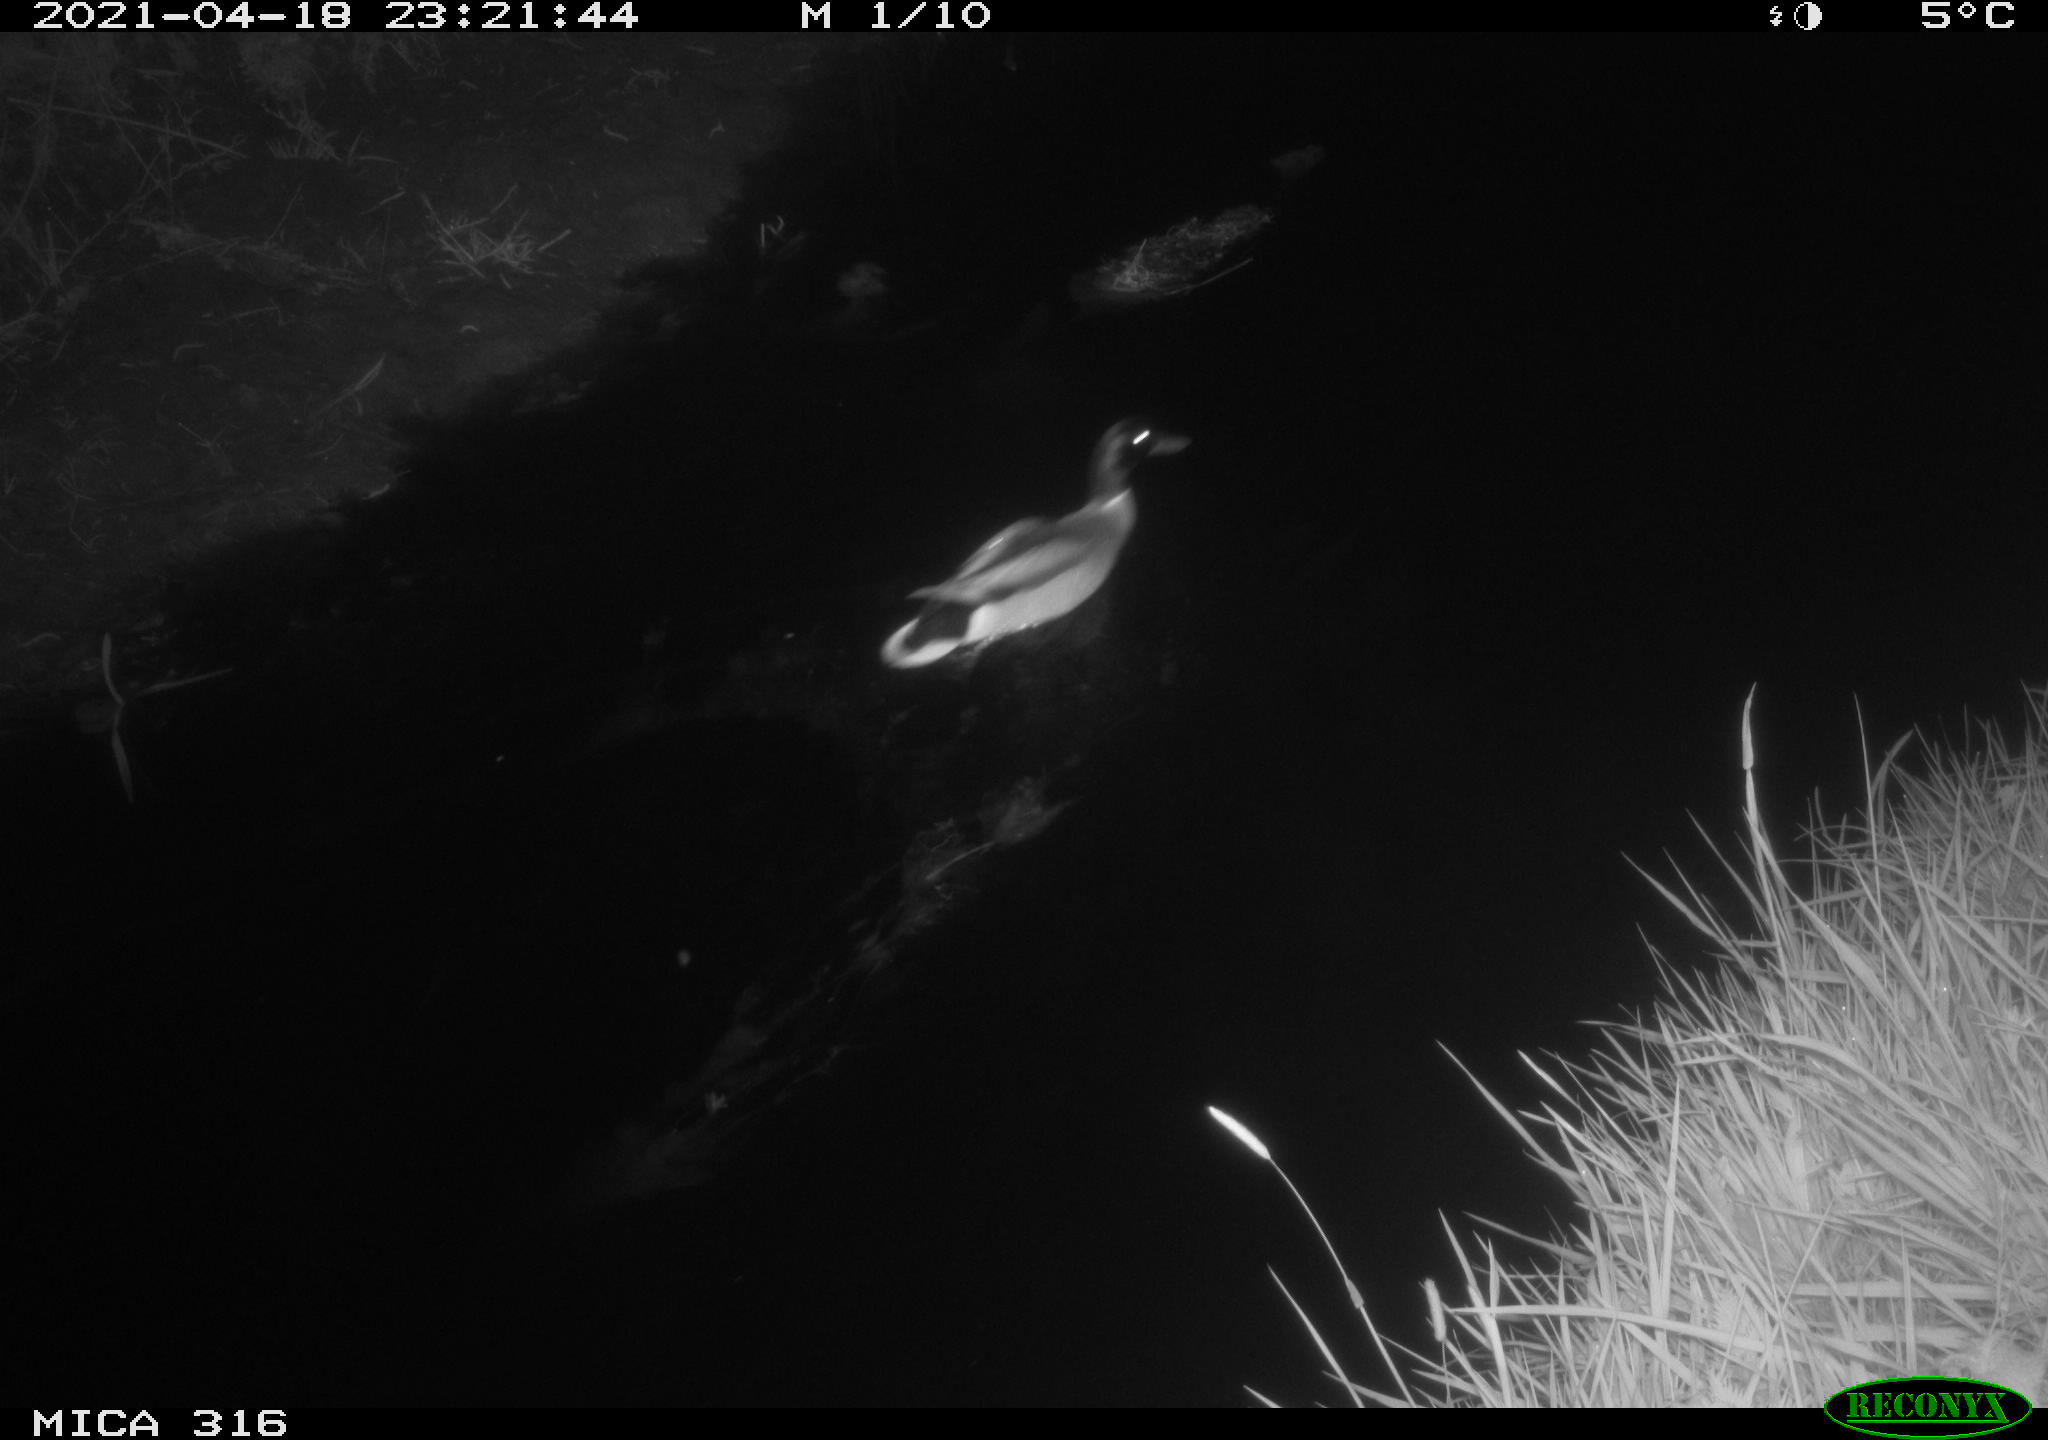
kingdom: Animalia
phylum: Chordata
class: Aves
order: Anseriformes
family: Anatidae
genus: Anas
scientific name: Anas platyrhynchos
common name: Mallard
